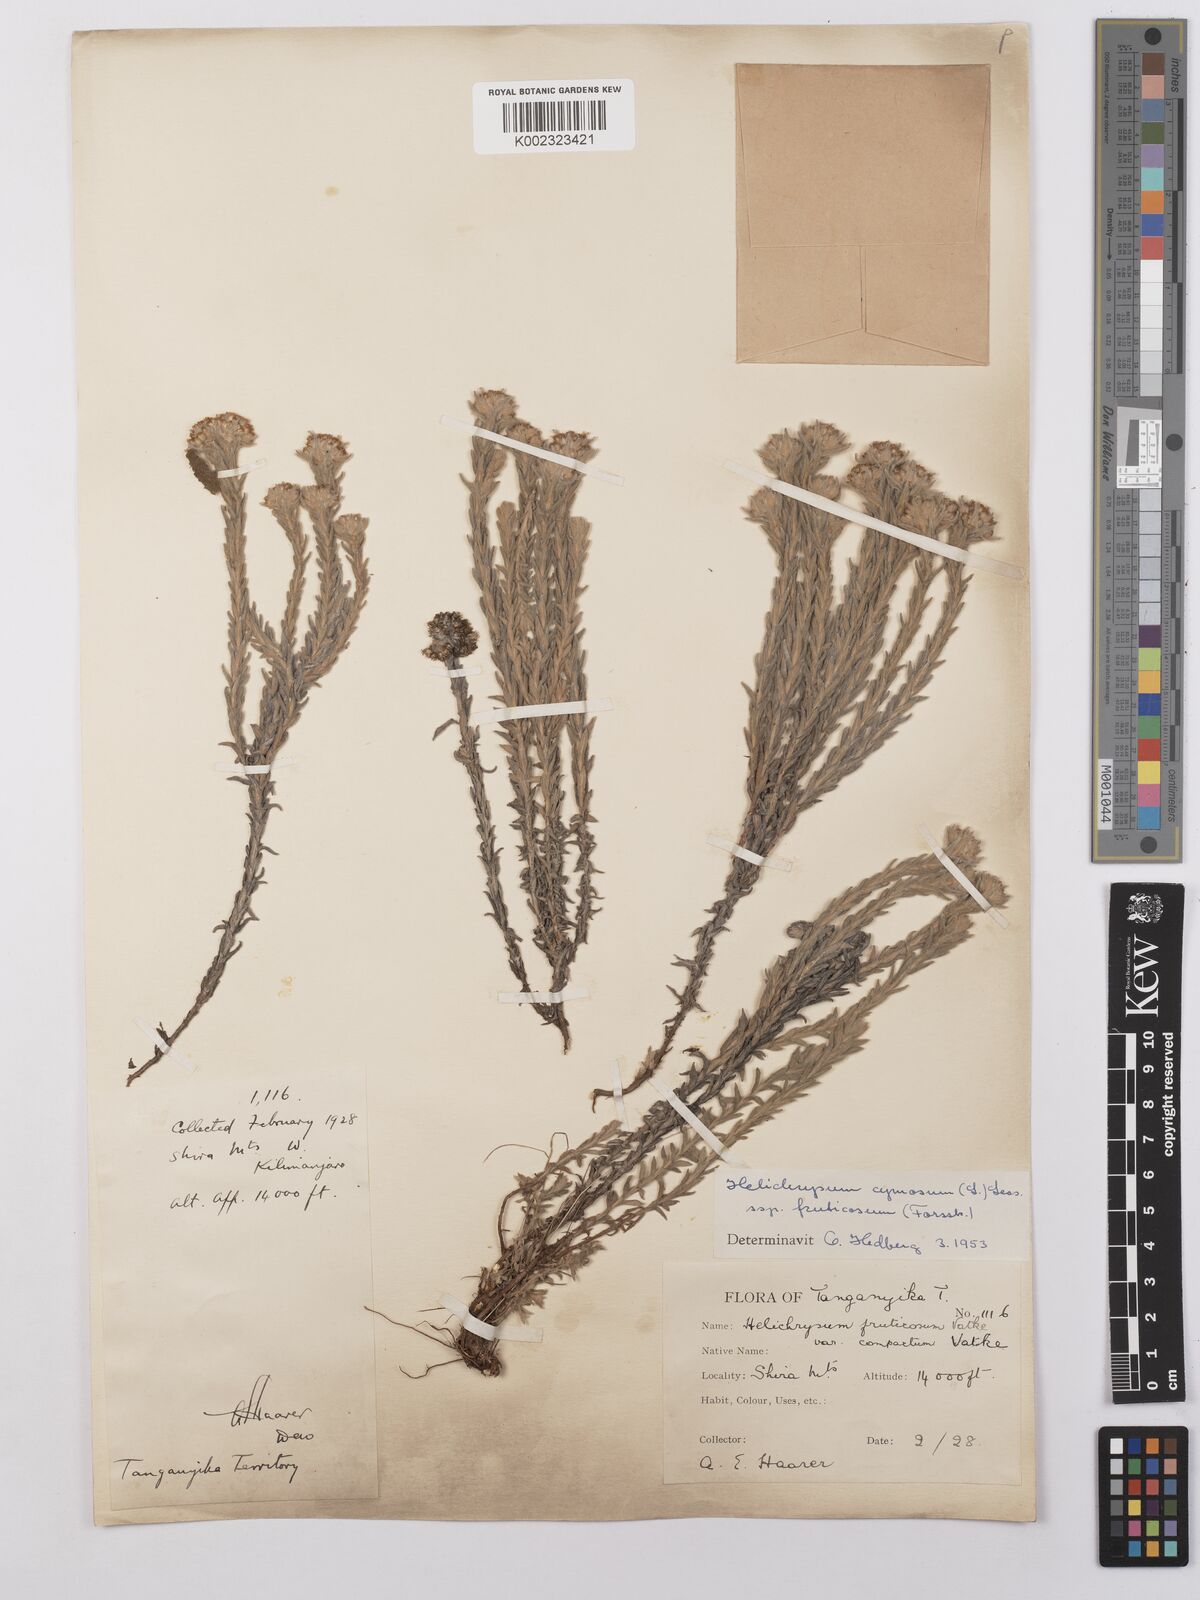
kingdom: Plantae
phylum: Tracheophyta
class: Magnoliopsida
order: Asterales
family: Asteraceae
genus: Helichrysum
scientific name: Helichrysum forskahlii
